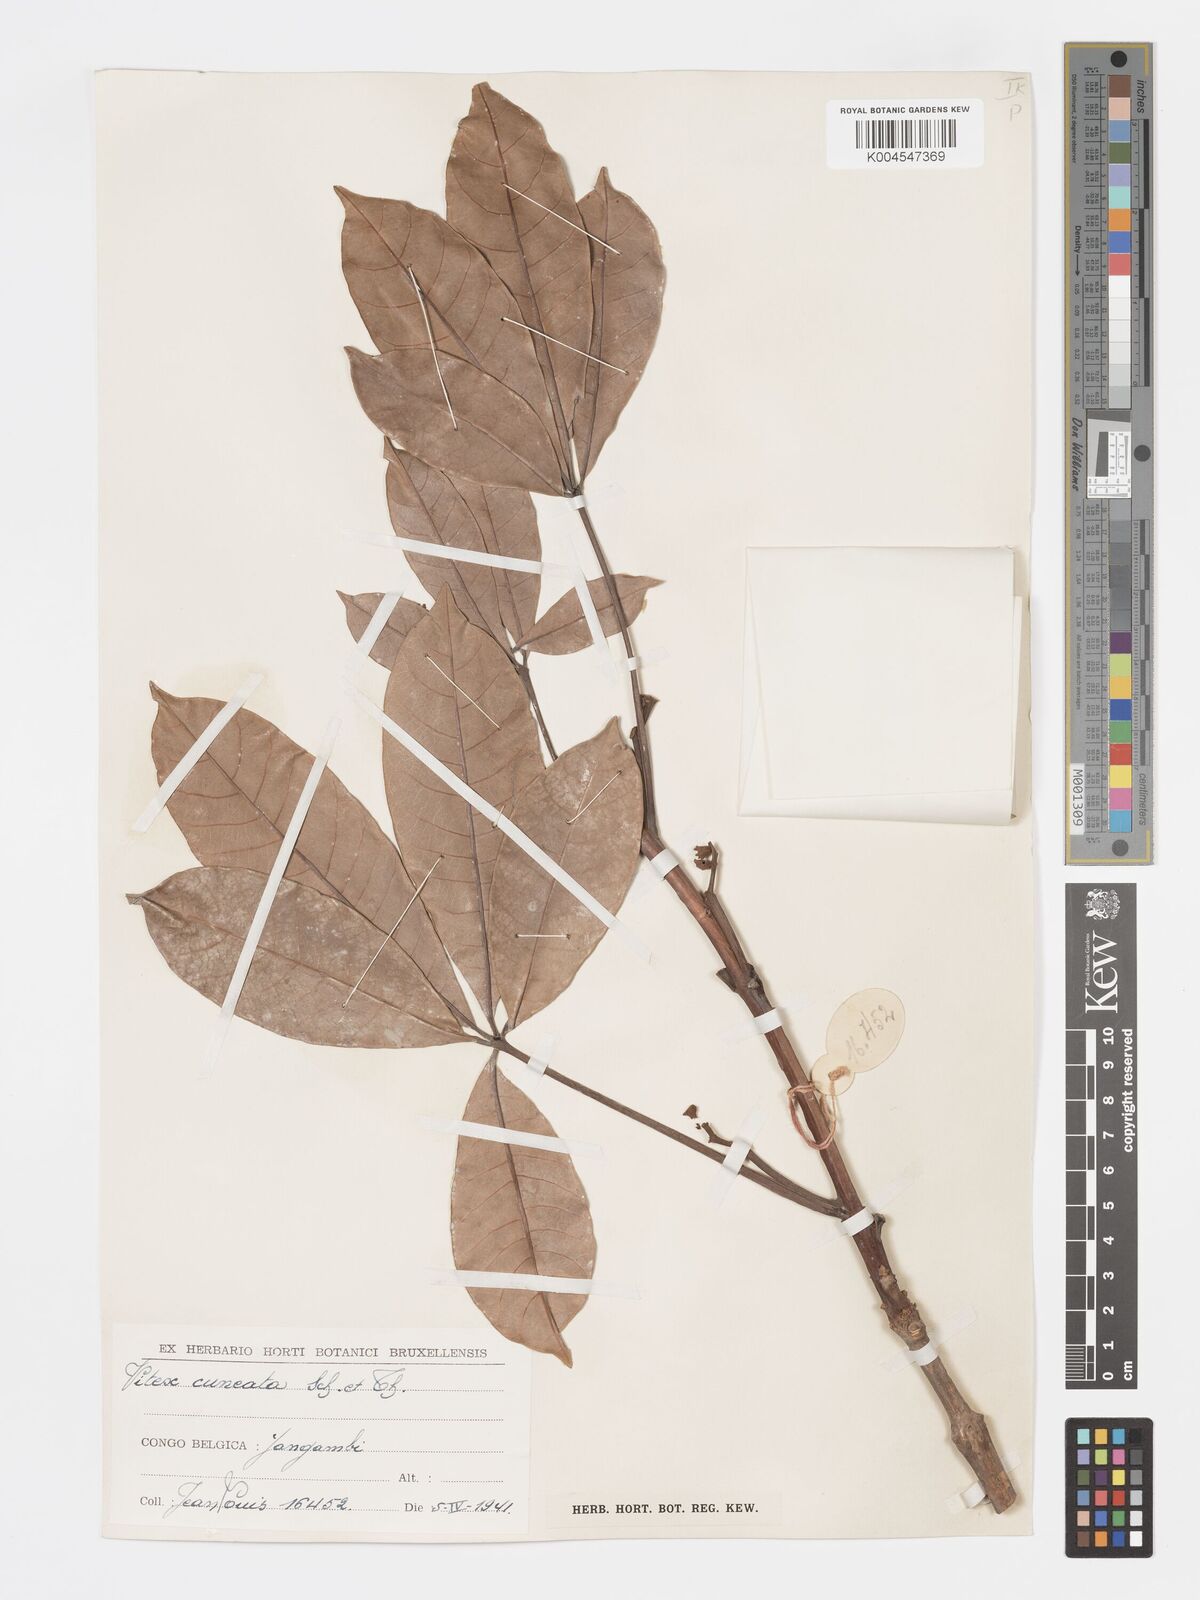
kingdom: Plantae
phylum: Tracheophyta
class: Magnoliopsida
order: Lamiales
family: Lamiaceae
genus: Vitex
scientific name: Vitex doniana
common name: Black plum
